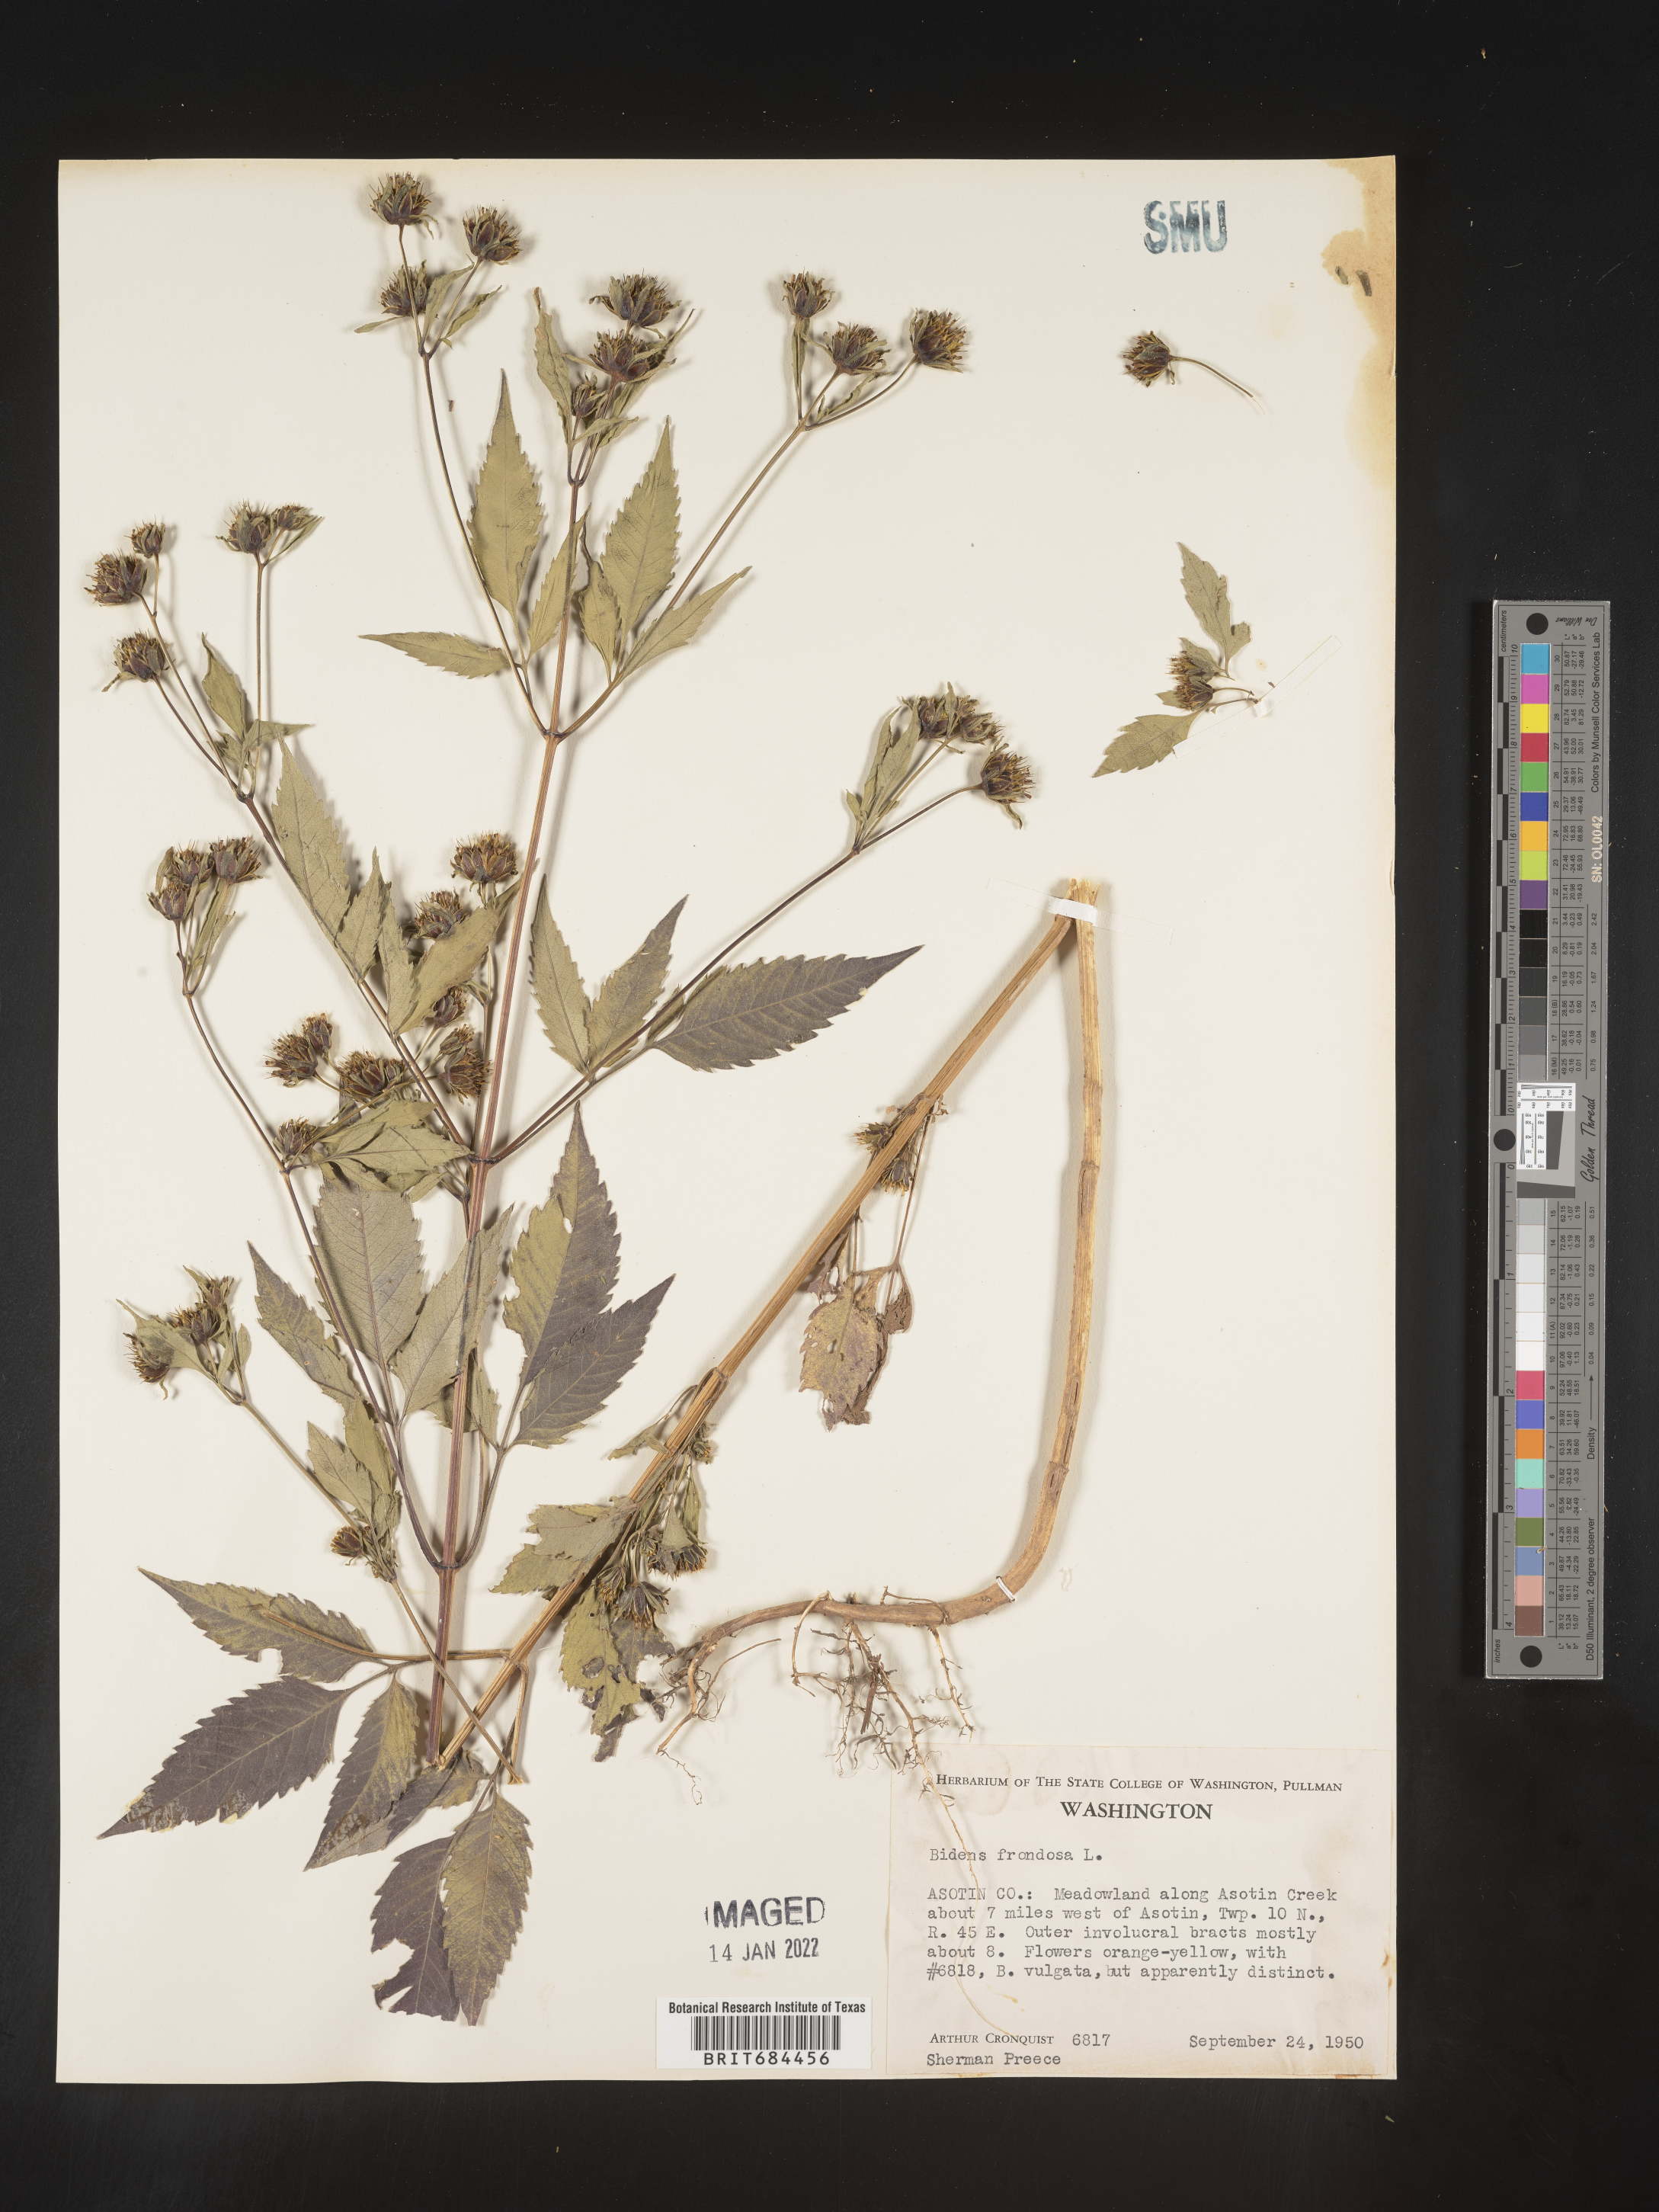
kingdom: Plantae
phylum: Tracheophyta
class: Magnoliopsida
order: Asterales
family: Asteraceae
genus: Bidens
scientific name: Bidens frondosa
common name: Beggarticks
